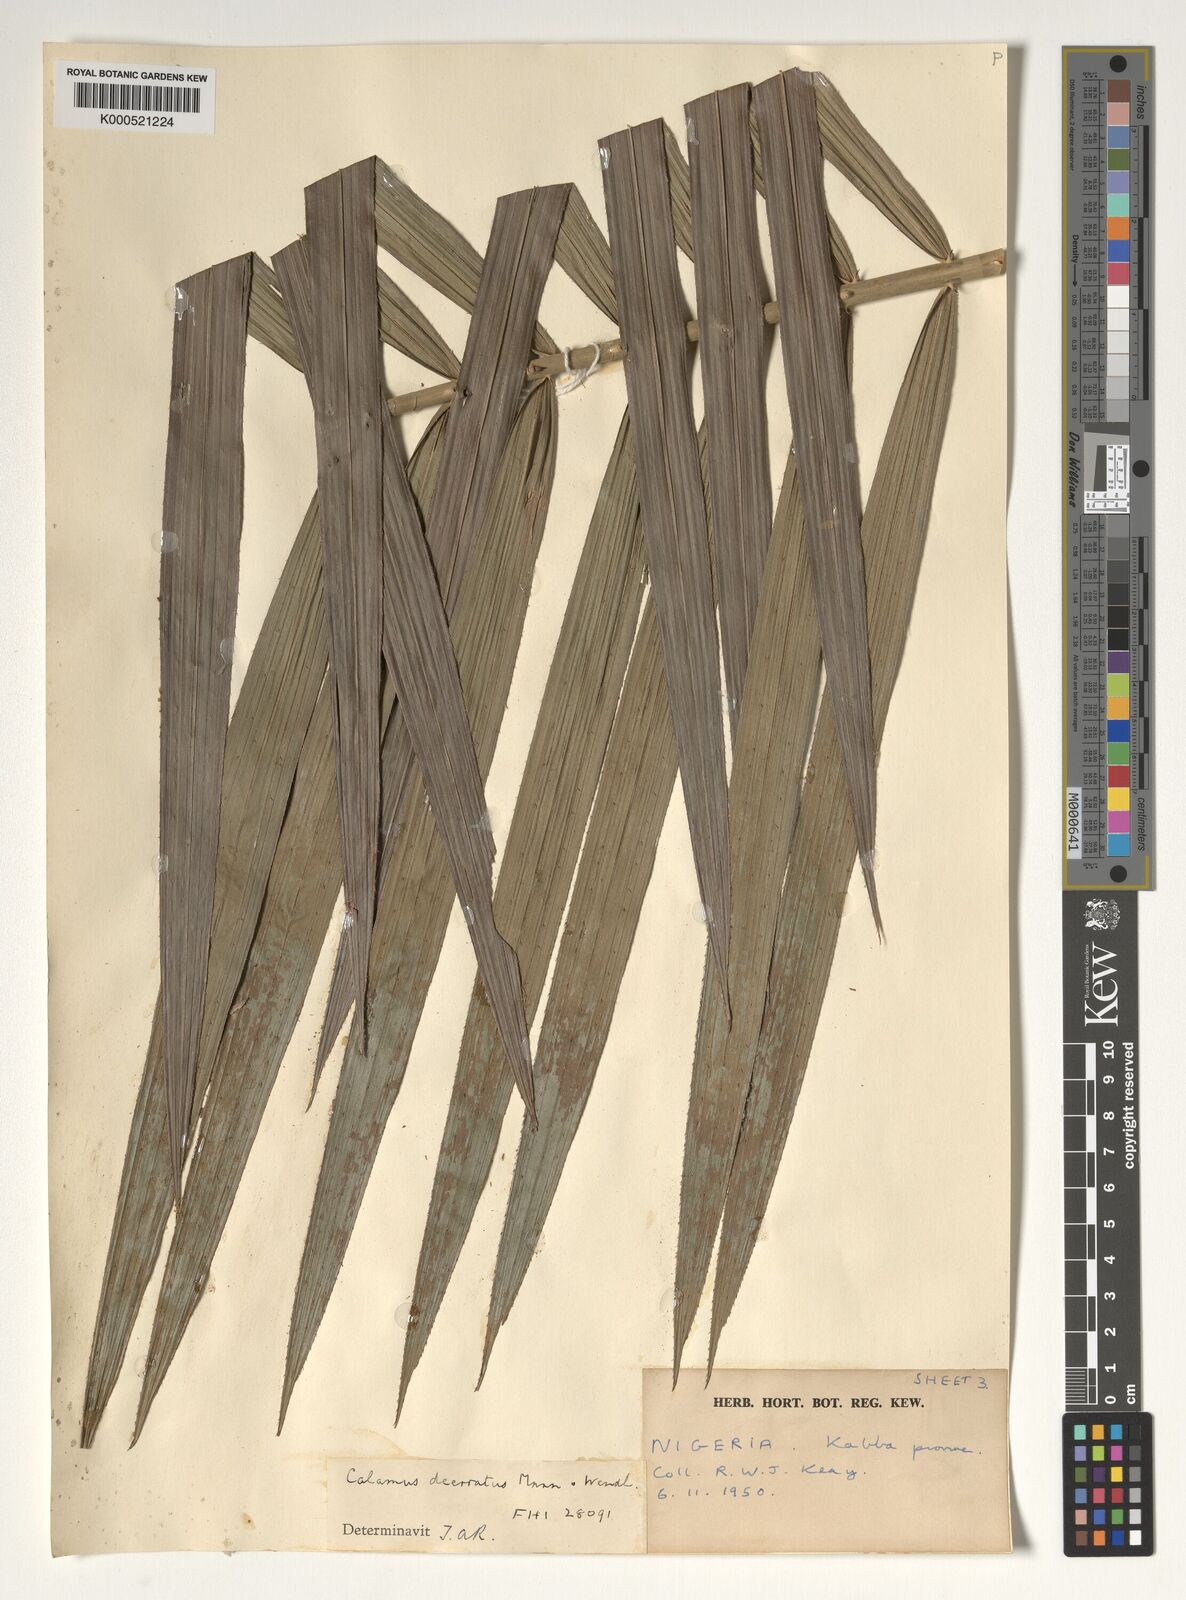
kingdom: Plantae
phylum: Tracheophyta
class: Liliopsida
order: Arecales
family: Arecaceae
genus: Calamus
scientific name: Calamus deerratus
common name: Rattan
